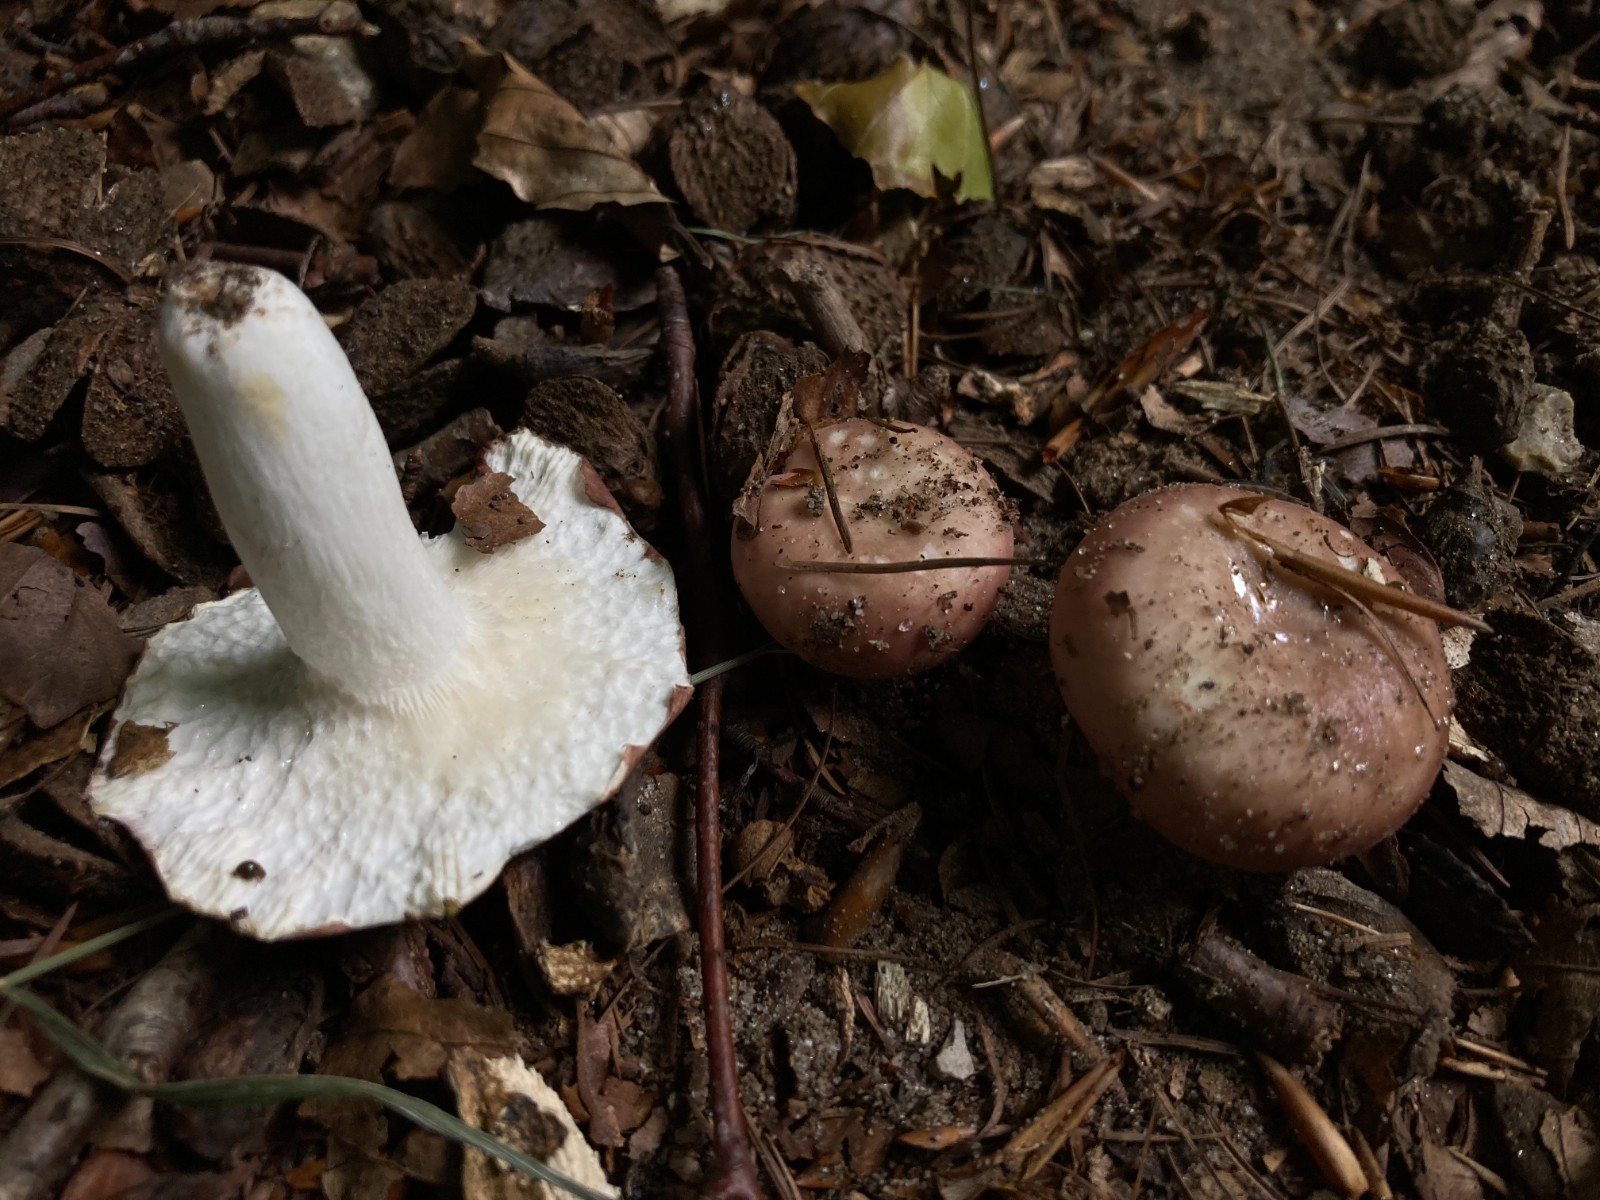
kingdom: Fungi
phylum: Basidiomycota
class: Agaricomycetes
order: Russulales
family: Russulaceae
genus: Russula
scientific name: Russula vesca
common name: spiselig skørhat
